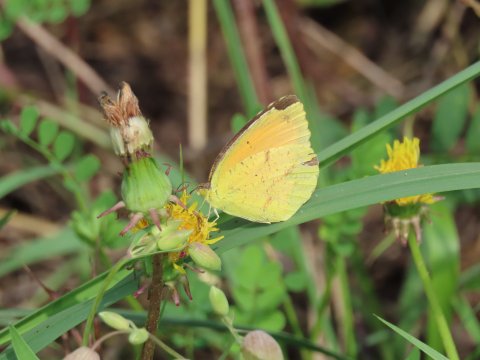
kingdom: Animalia
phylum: Arthropoda
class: Insecta
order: Lepidoptera
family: Pieridae
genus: Abaeis
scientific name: Abaeis nicippe
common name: Sleepy Orange
